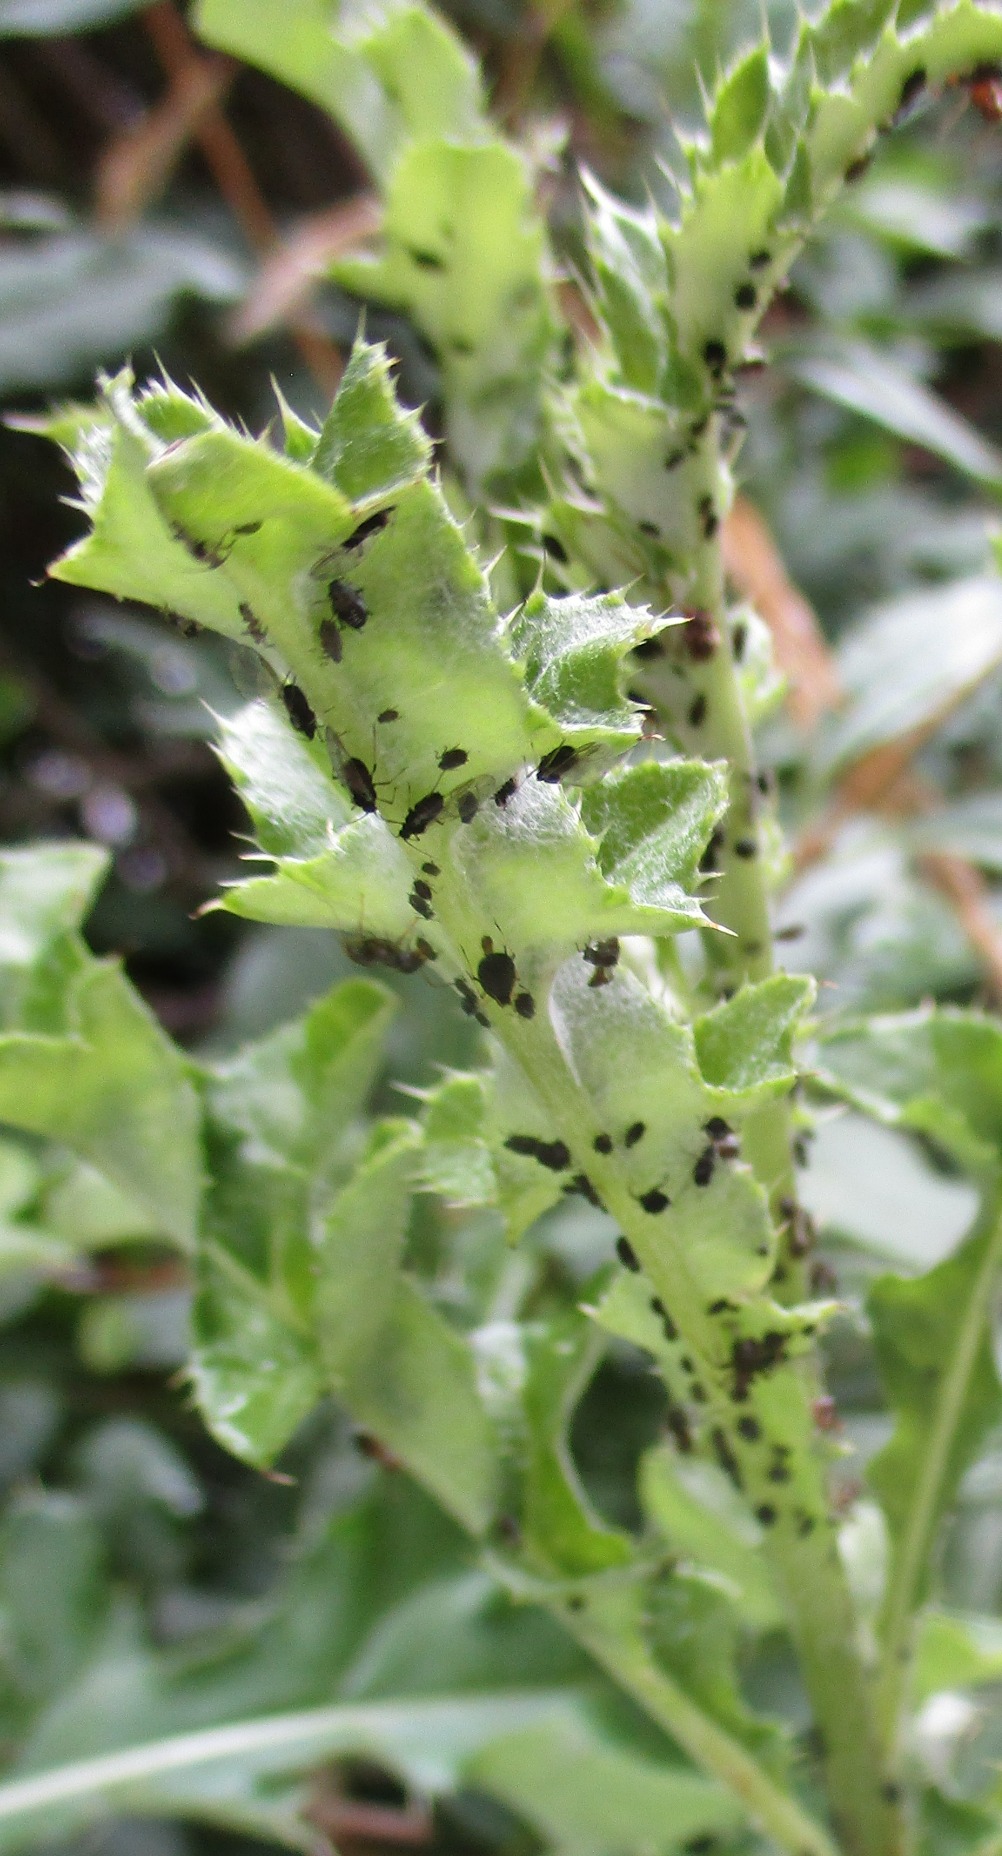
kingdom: Animalia
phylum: Arthropoda
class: Insecta
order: Hemiptera
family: Aphididae
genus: Aphis
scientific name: Aphis fabae
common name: Bedebladlus
